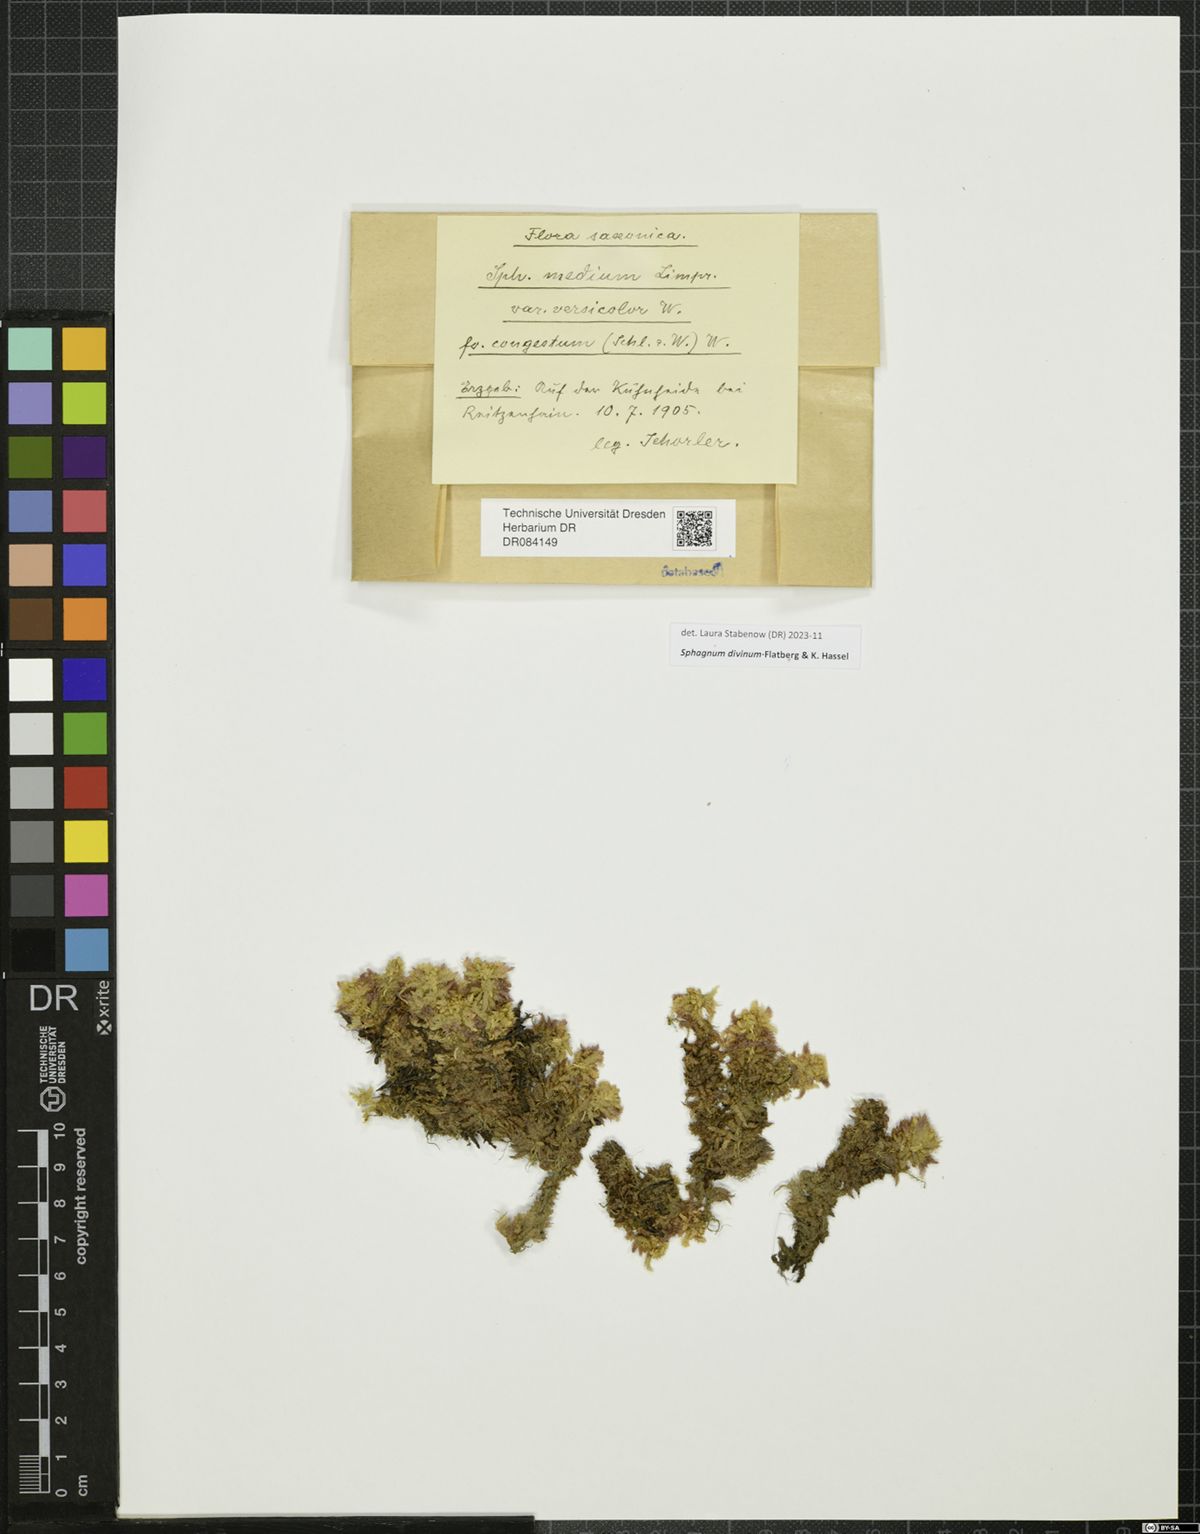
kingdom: Plantae
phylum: Bryophyta
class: Sphagnopsida
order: Sphagnales
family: Sphagnaceae
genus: Sphagnum
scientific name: Sphagnum divinum
